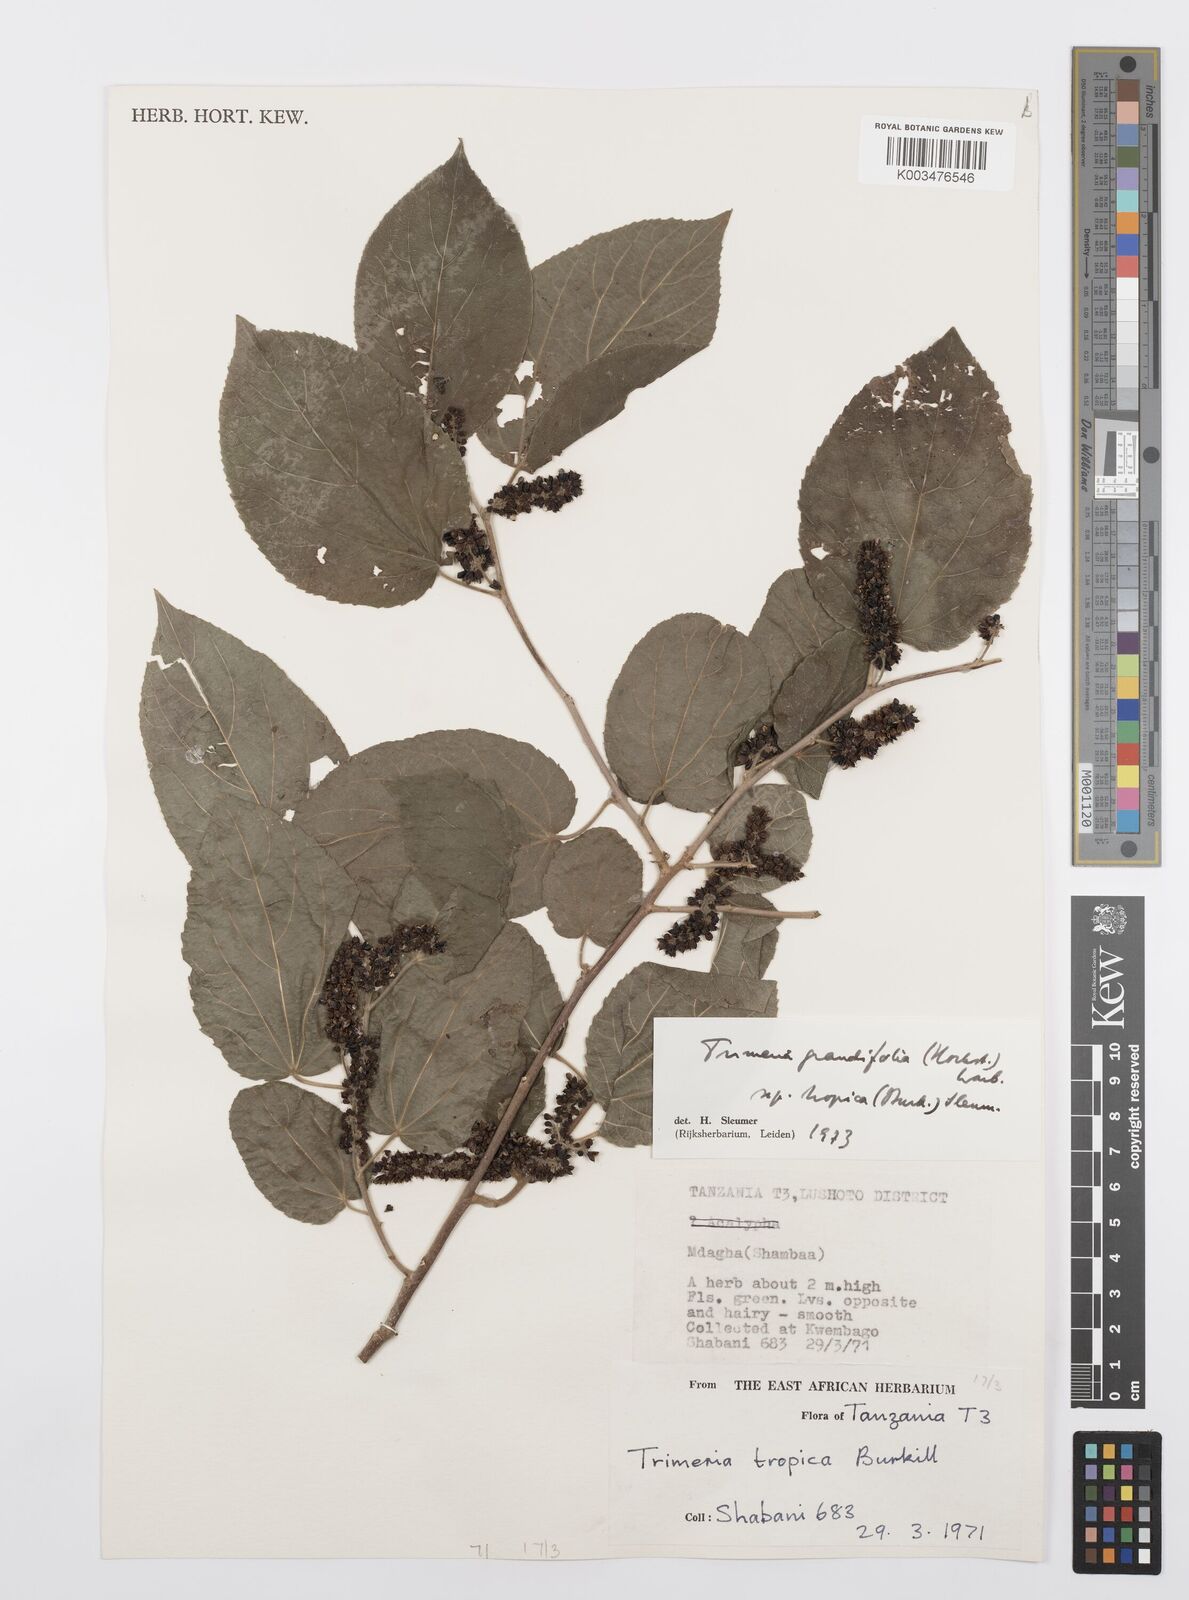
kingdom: Plantae
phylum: Tracheophyta
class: Magnoliopsida
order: Malpighiales
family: Salicaceae
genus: Trimeria
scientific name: Trimeria grandifolia
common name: Wild mulberry
